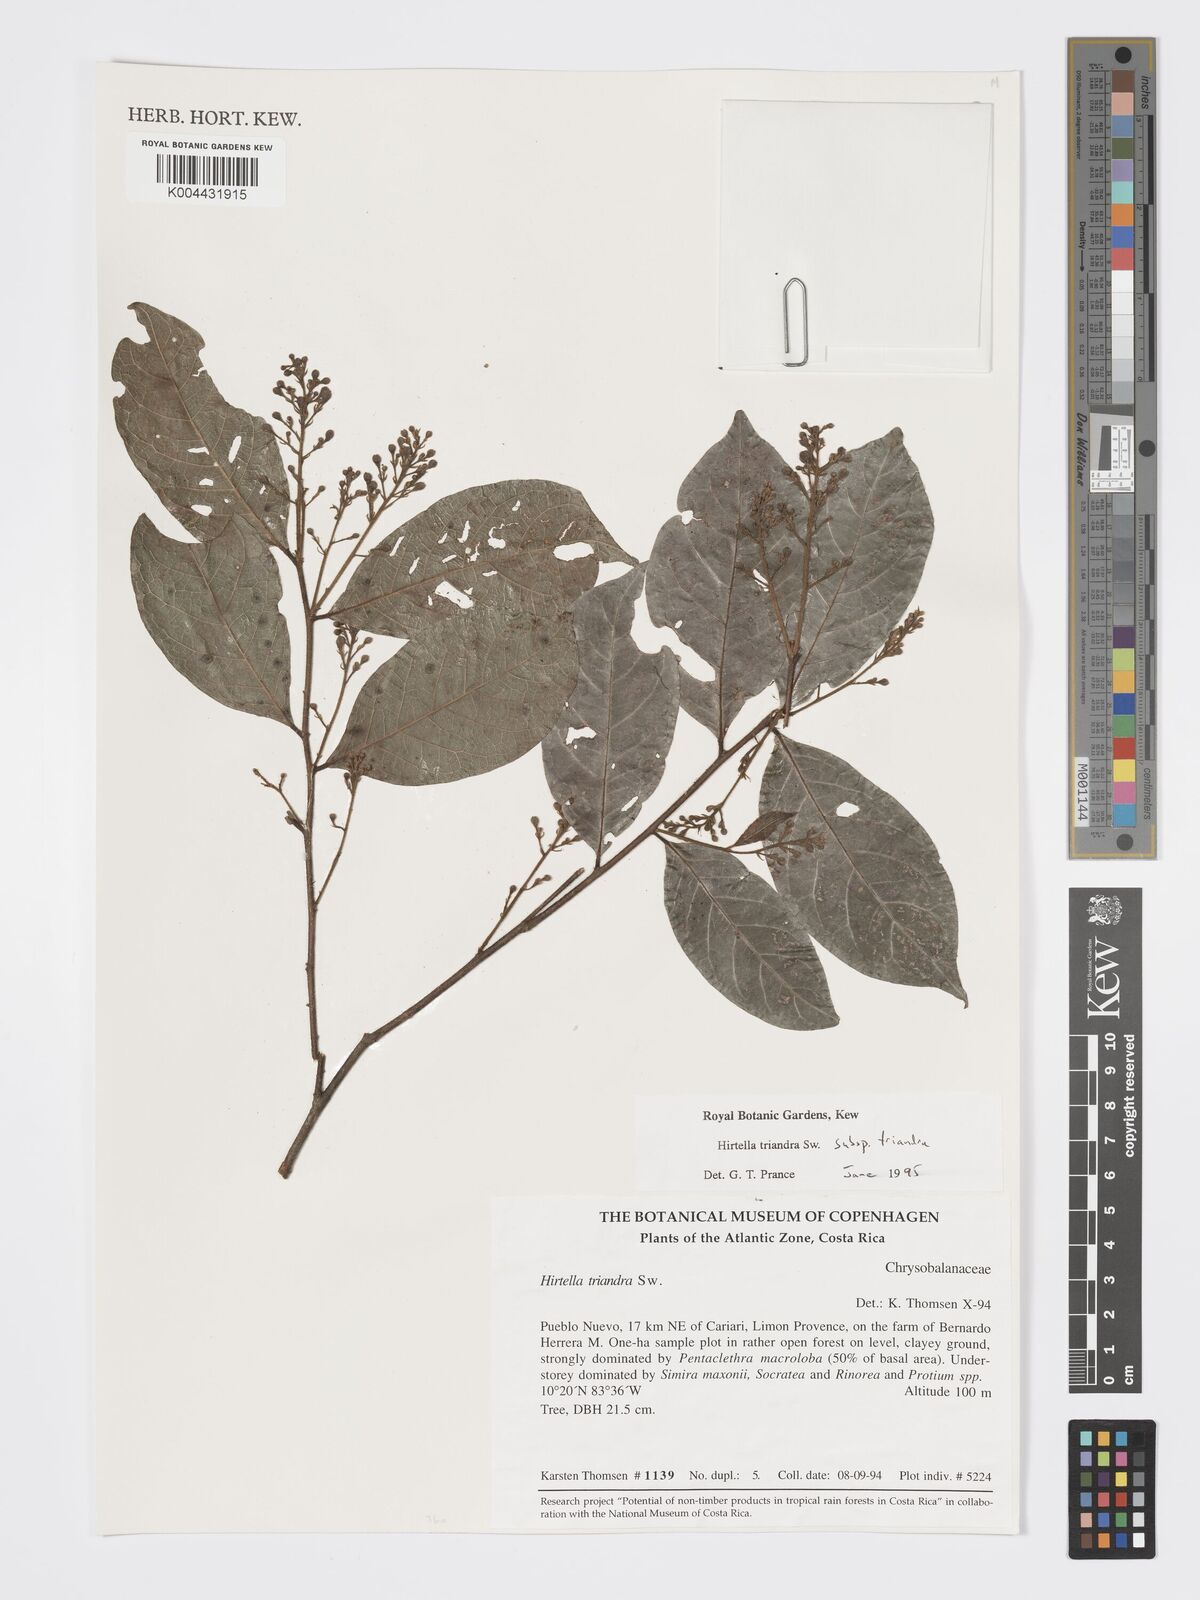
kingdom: Plantae
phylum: Tracheophyta
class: Magnoliopsida
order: Malpighiales
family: Chrysobalanaceae
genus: Hirtella
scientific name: Hirtella triandra
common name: Hairy plum
